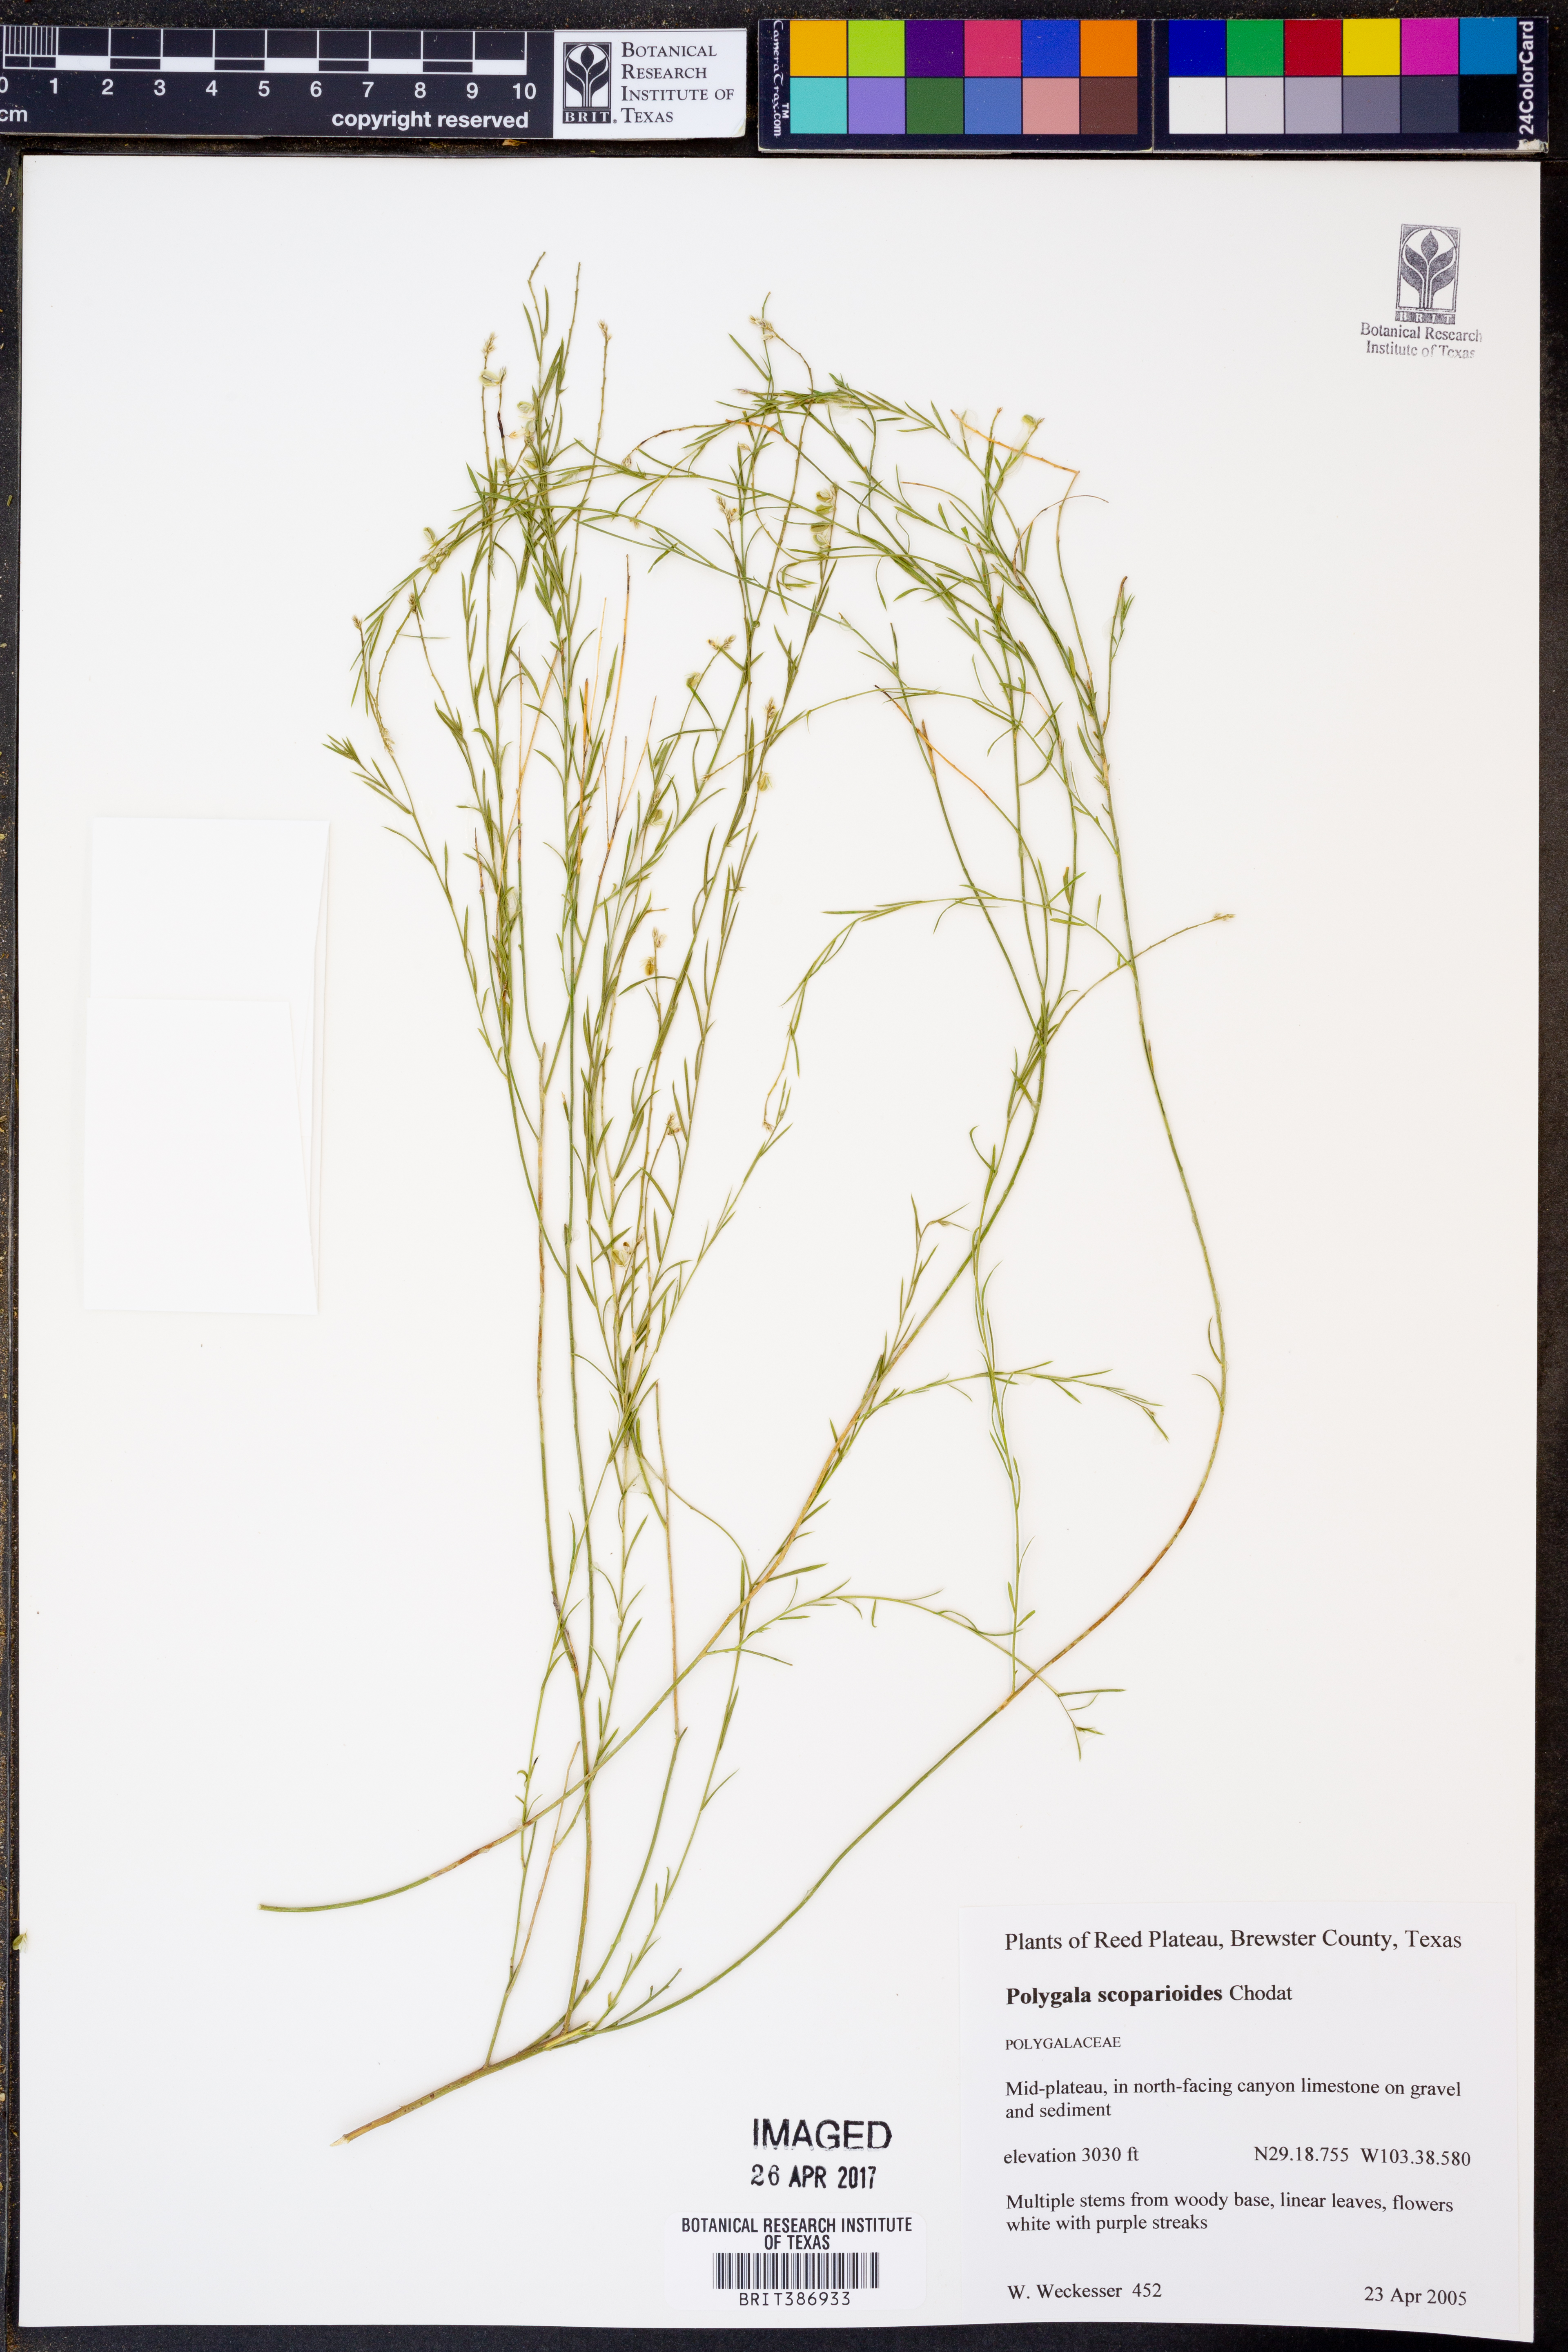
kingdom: Plantae
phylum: Tracheophyta
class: Magnoliopsida
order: Fabales
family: Polygalaceae
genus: Polygala
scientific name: Polygala scoparioides
